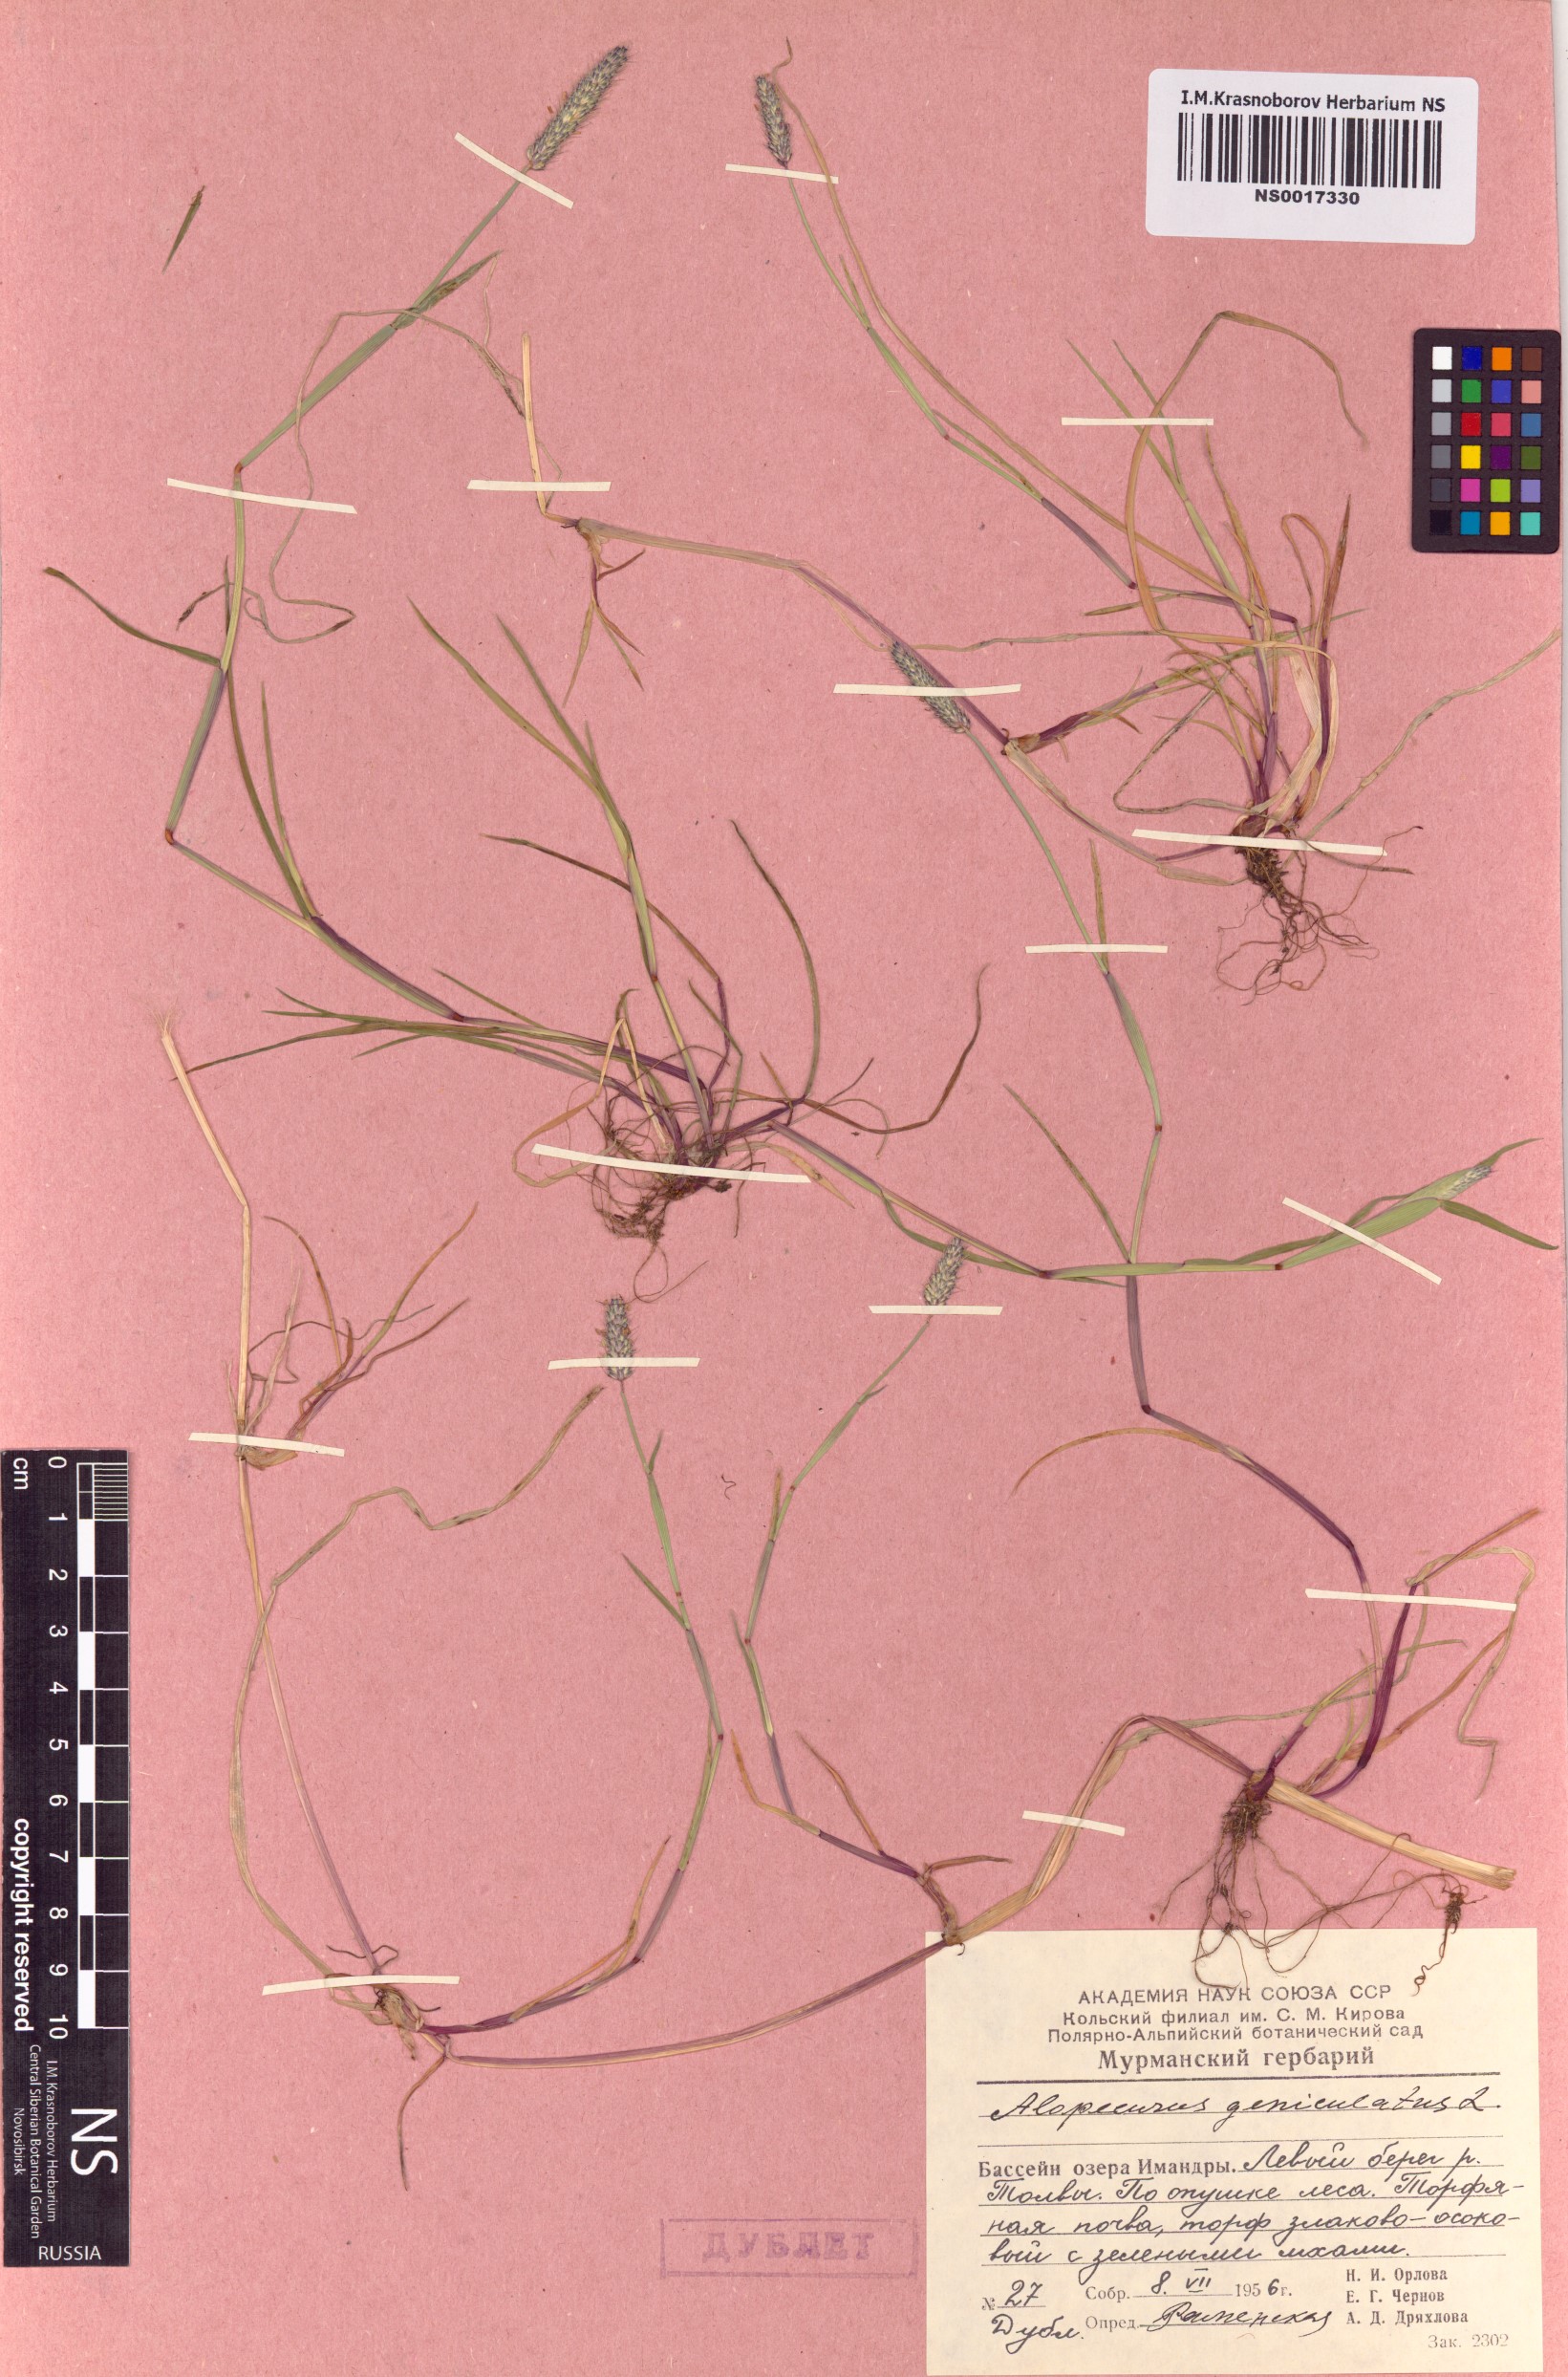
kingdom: Plantae
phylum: Tracheophyta
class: Liliopsida
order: Poales
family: Poaceae
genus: Alopecurus
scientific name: Alopecurus geniculatus
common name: Water foxtail
